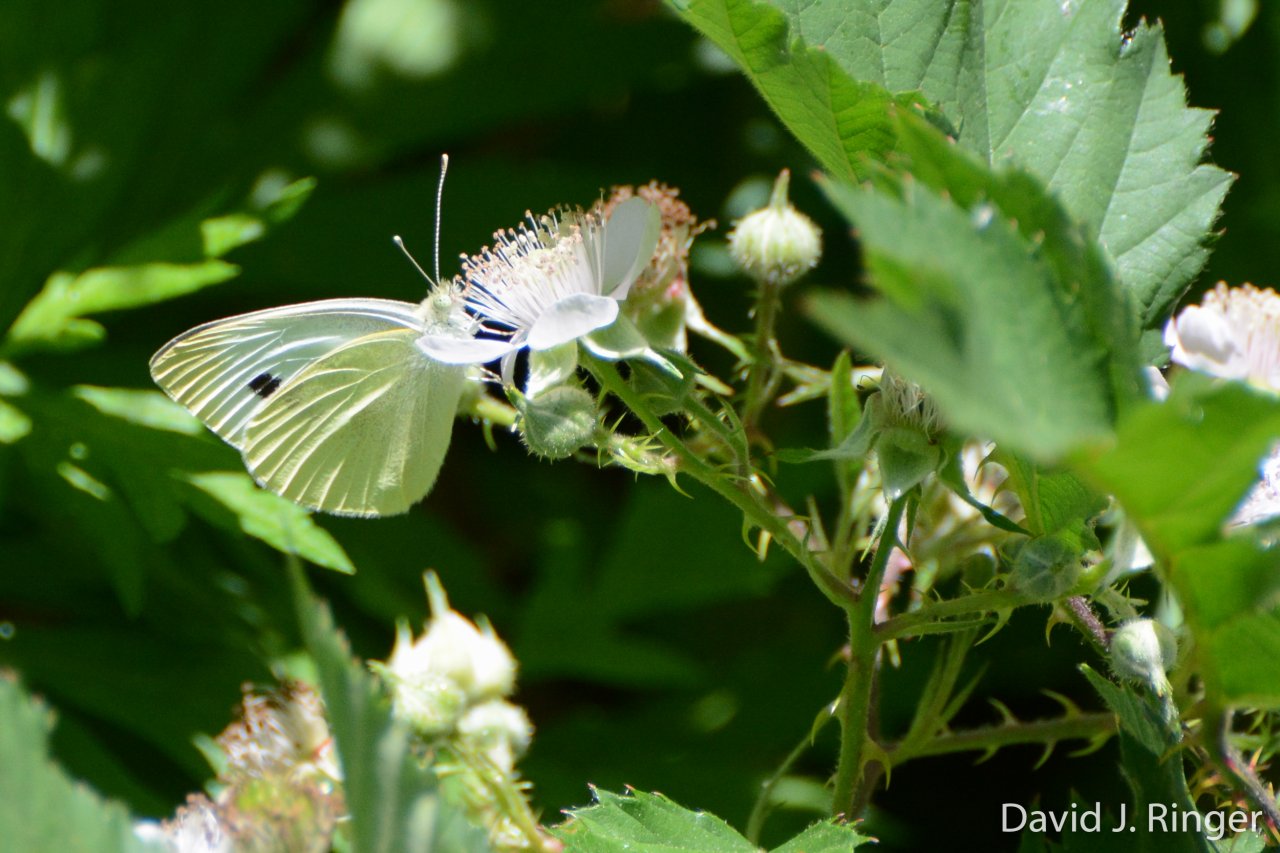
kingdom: Animalia
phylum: Arthropoda
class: Insecta
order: Lepidoptera
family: Pieridae
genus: Pieris
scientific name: Pieris rapae
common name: Cabbage White
